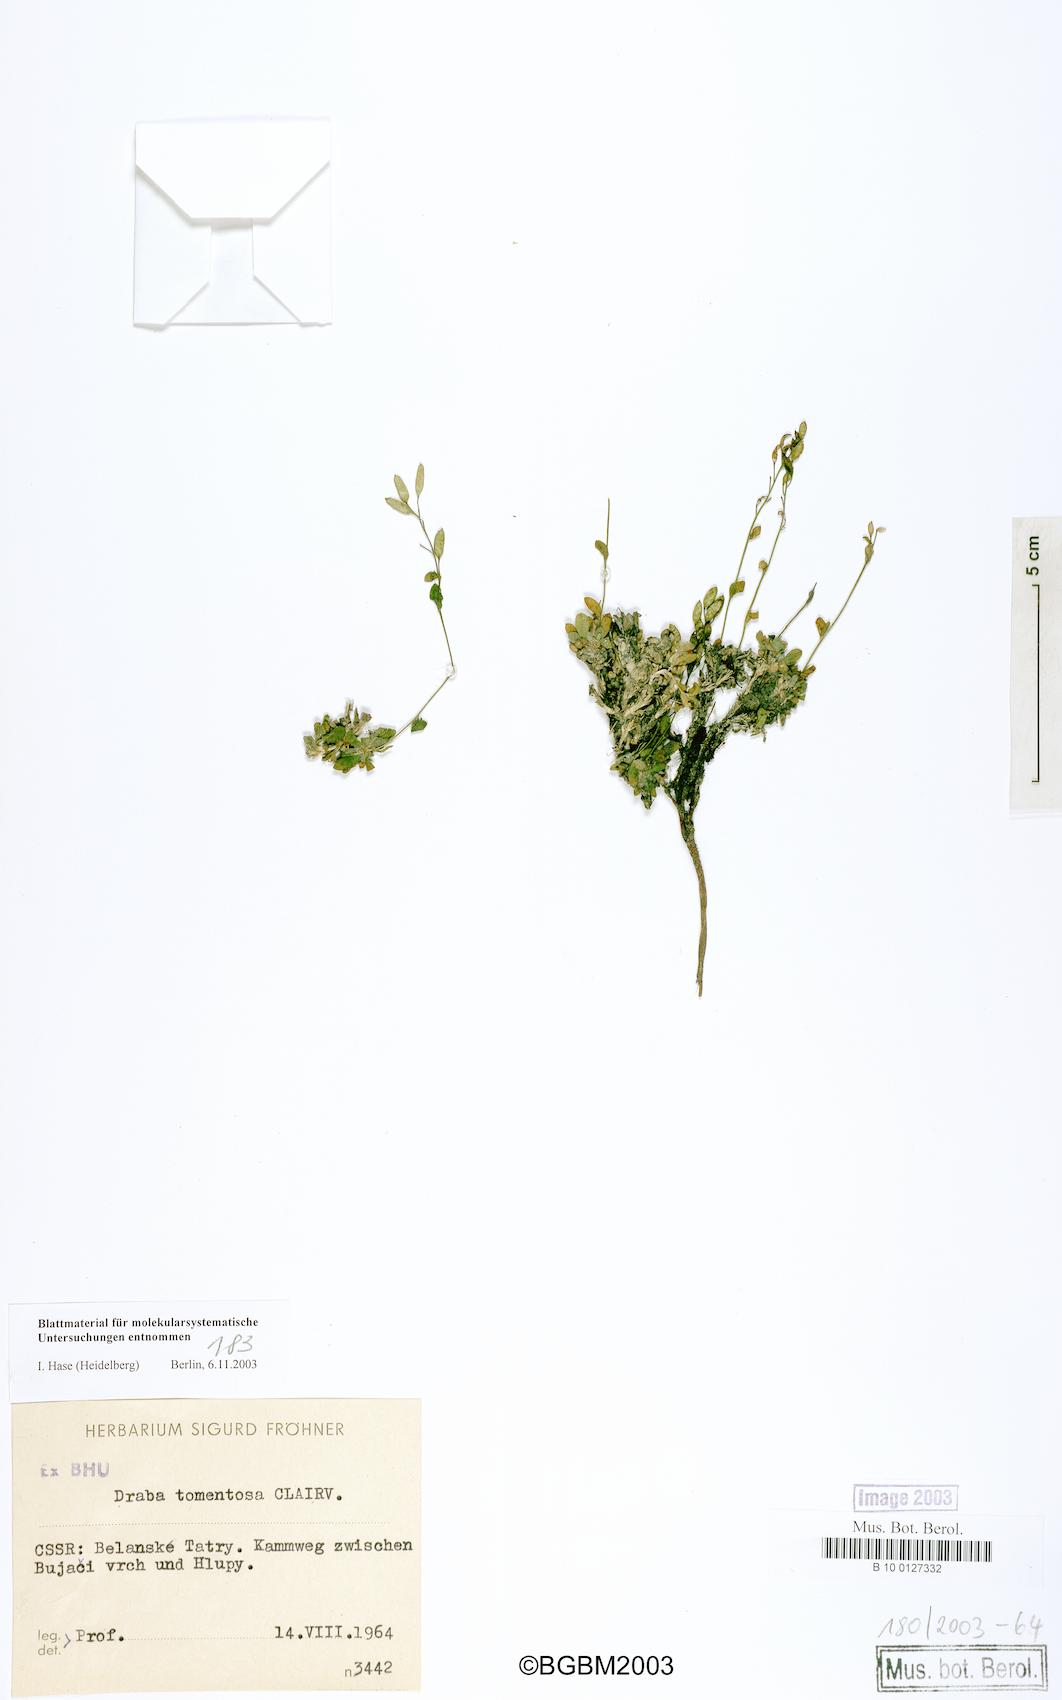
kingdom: Plantae
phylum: Tracheophyta
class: Magnoliopsida
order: Brassicales
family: Brassicaceae
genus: Draba
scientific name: Draba tomentosa
